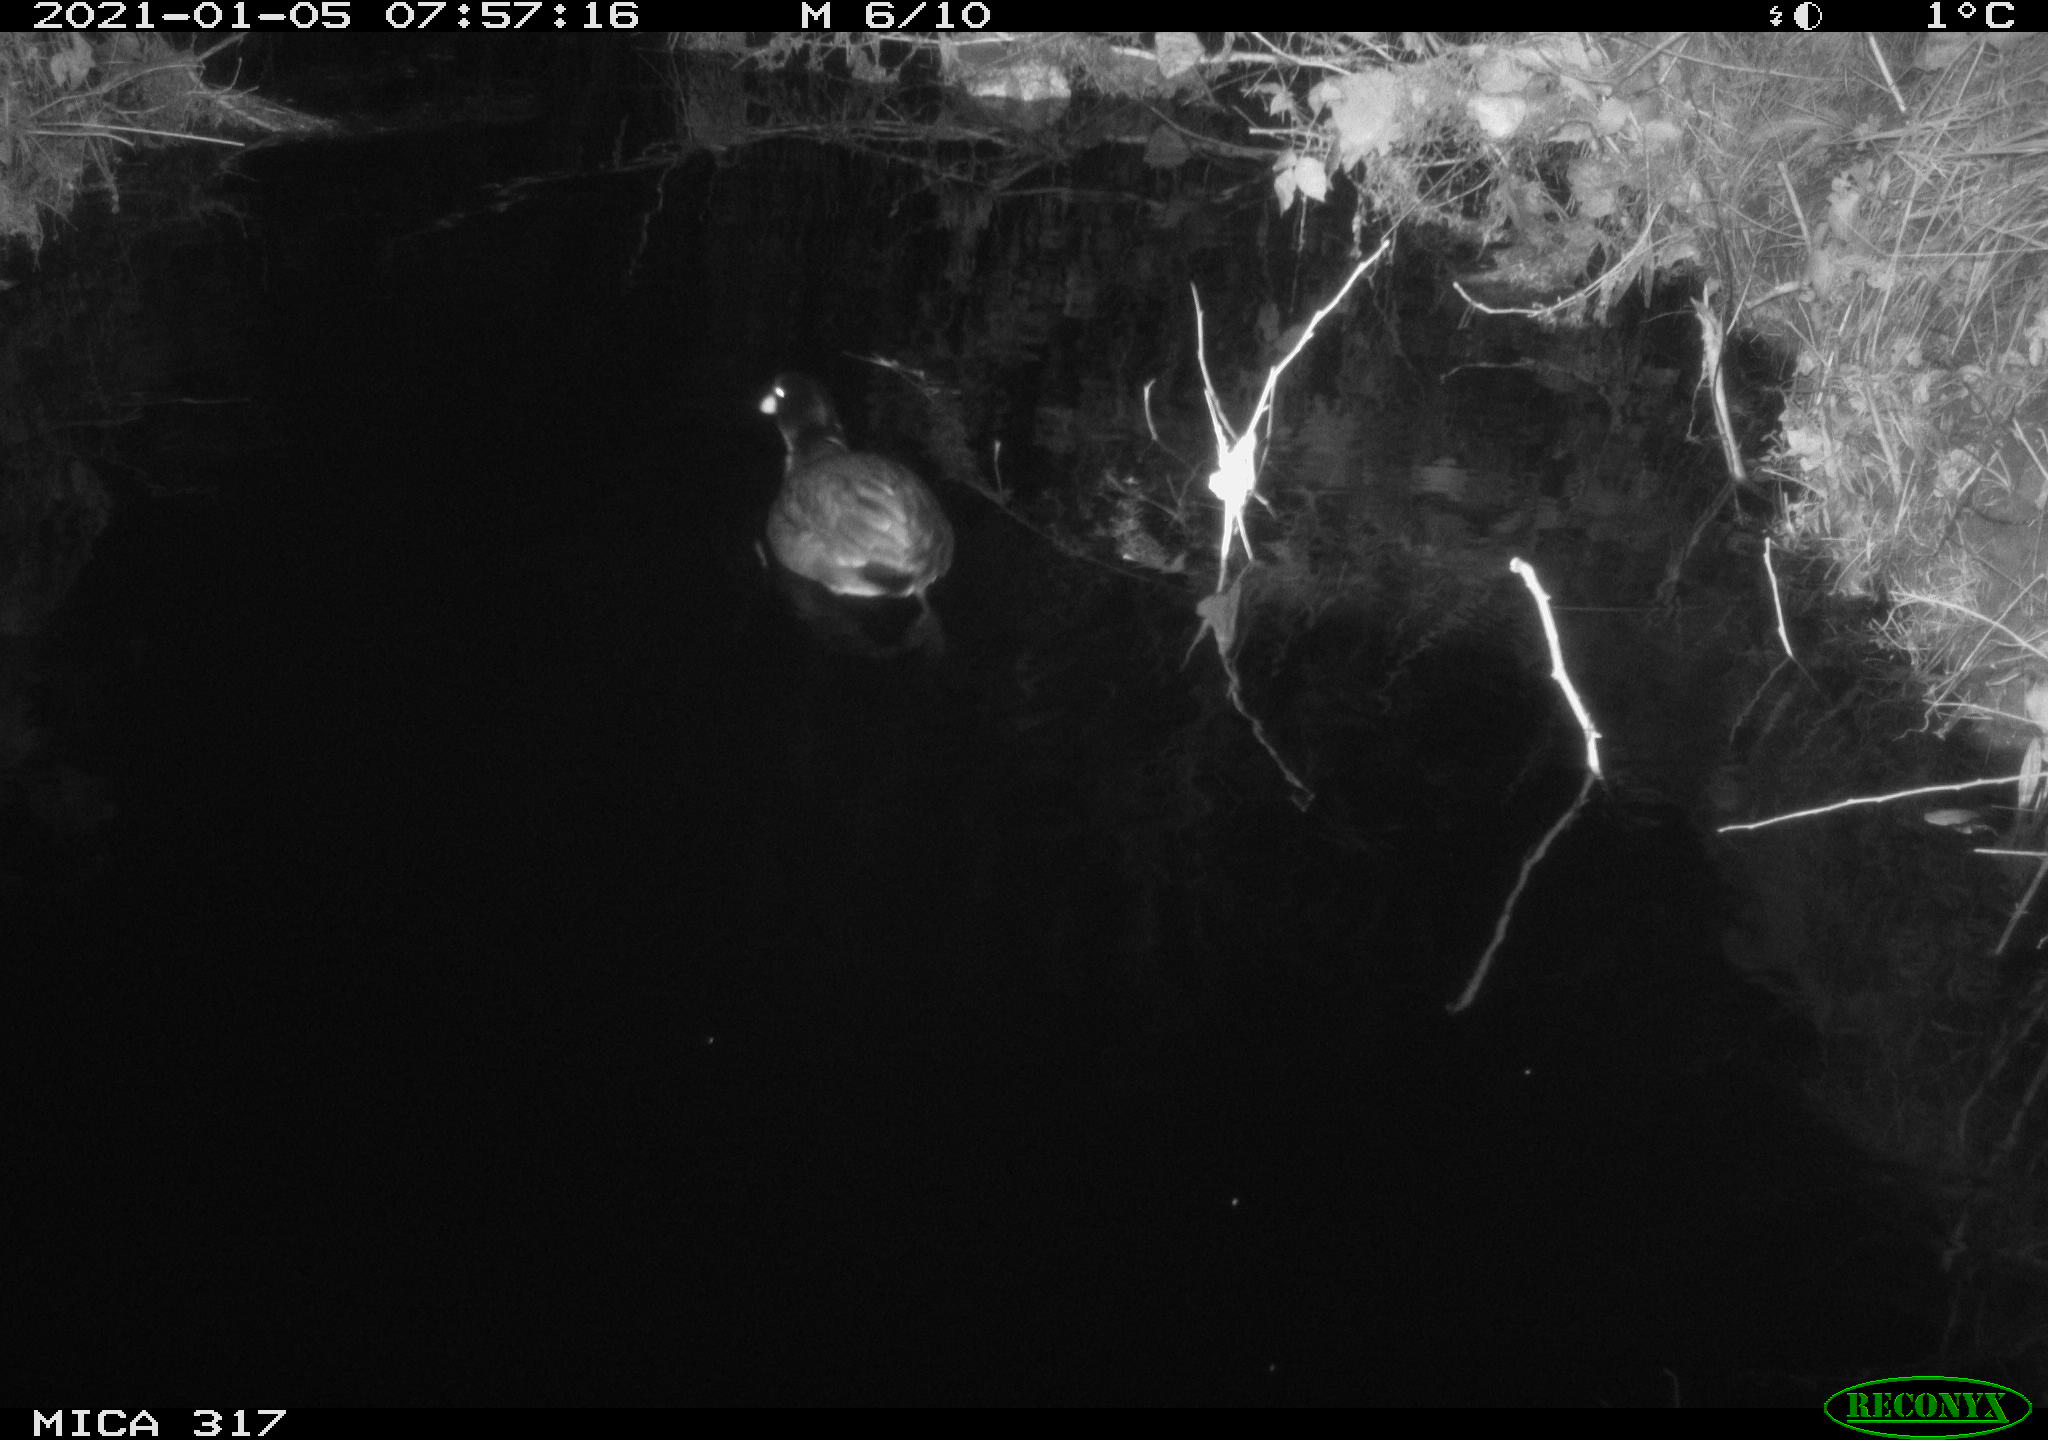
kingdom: Animalia
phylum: Chordata
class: Aves
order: Gruiformes
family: Rallidae
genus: Fulica
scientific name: Fulica atra
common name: Eurasian coot
